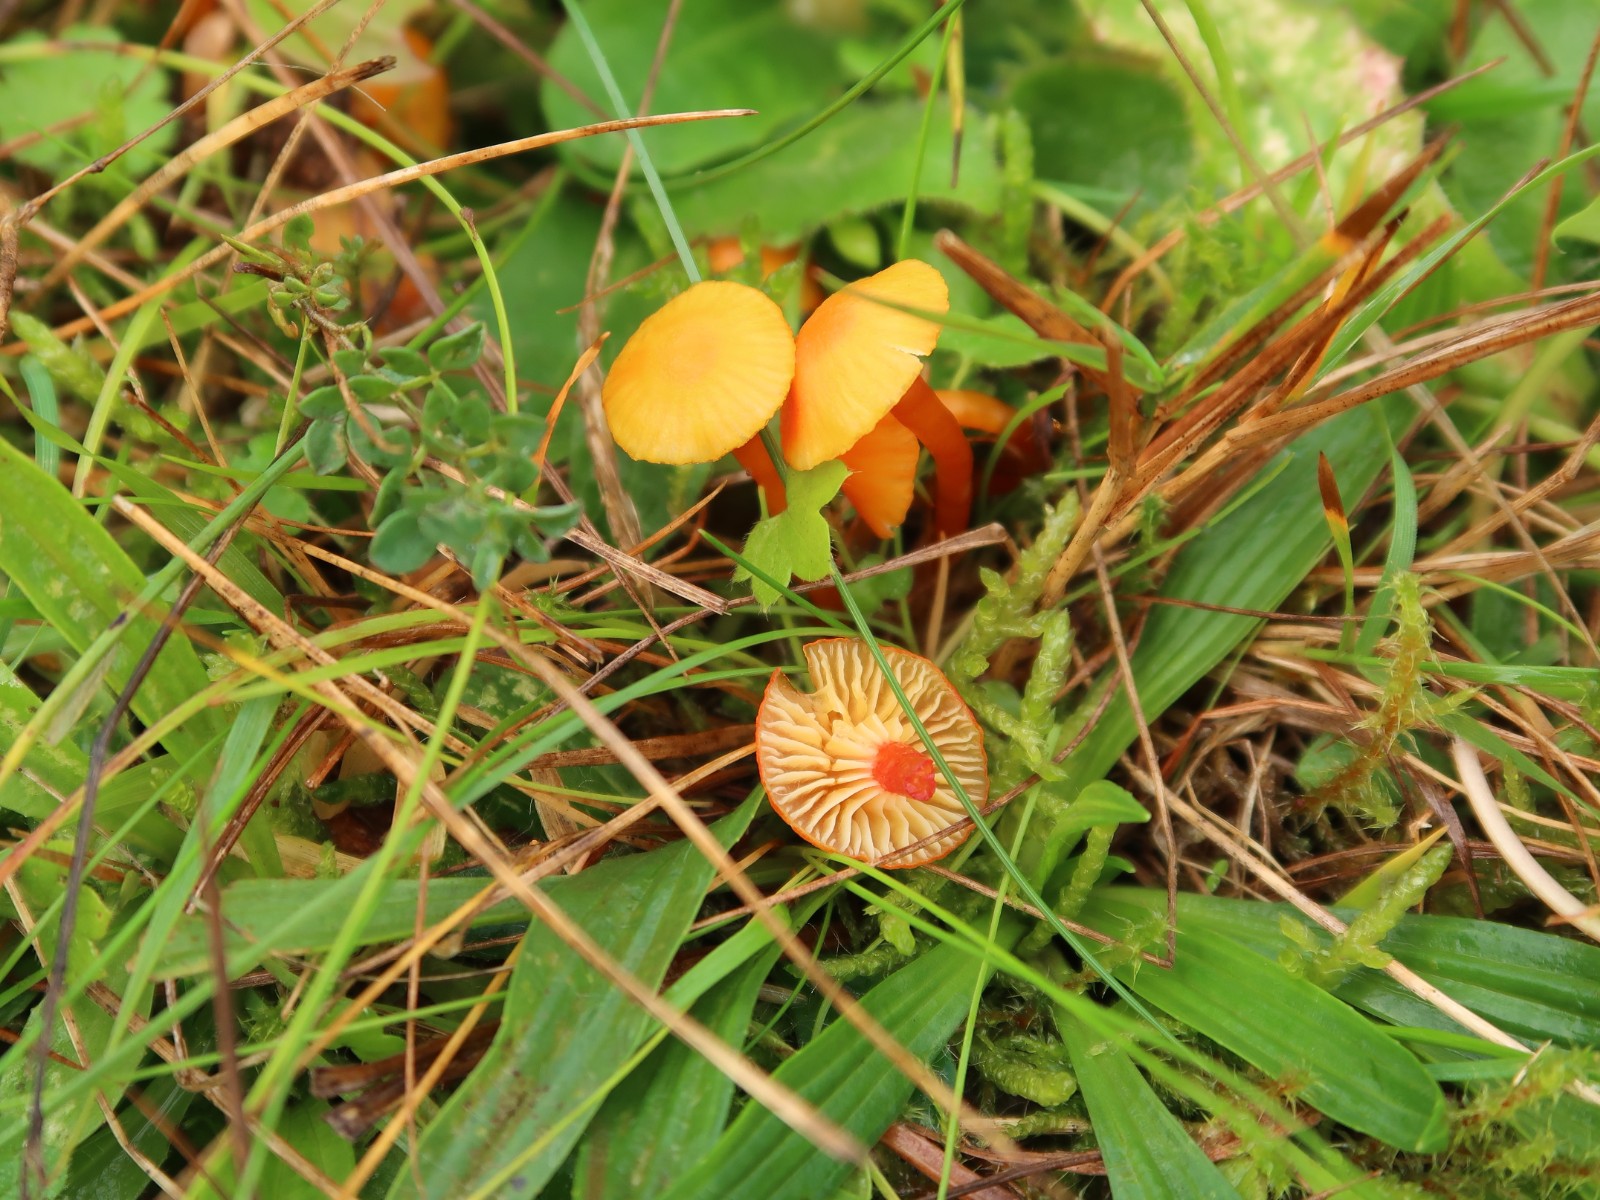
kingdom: Fungi
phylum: Basidiomycota
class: Agaricomycetes
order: Agaricales
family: Hygrophoraceae
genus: Hygrocybe
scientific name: Hygrocybe insipida
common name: liden vokshat
